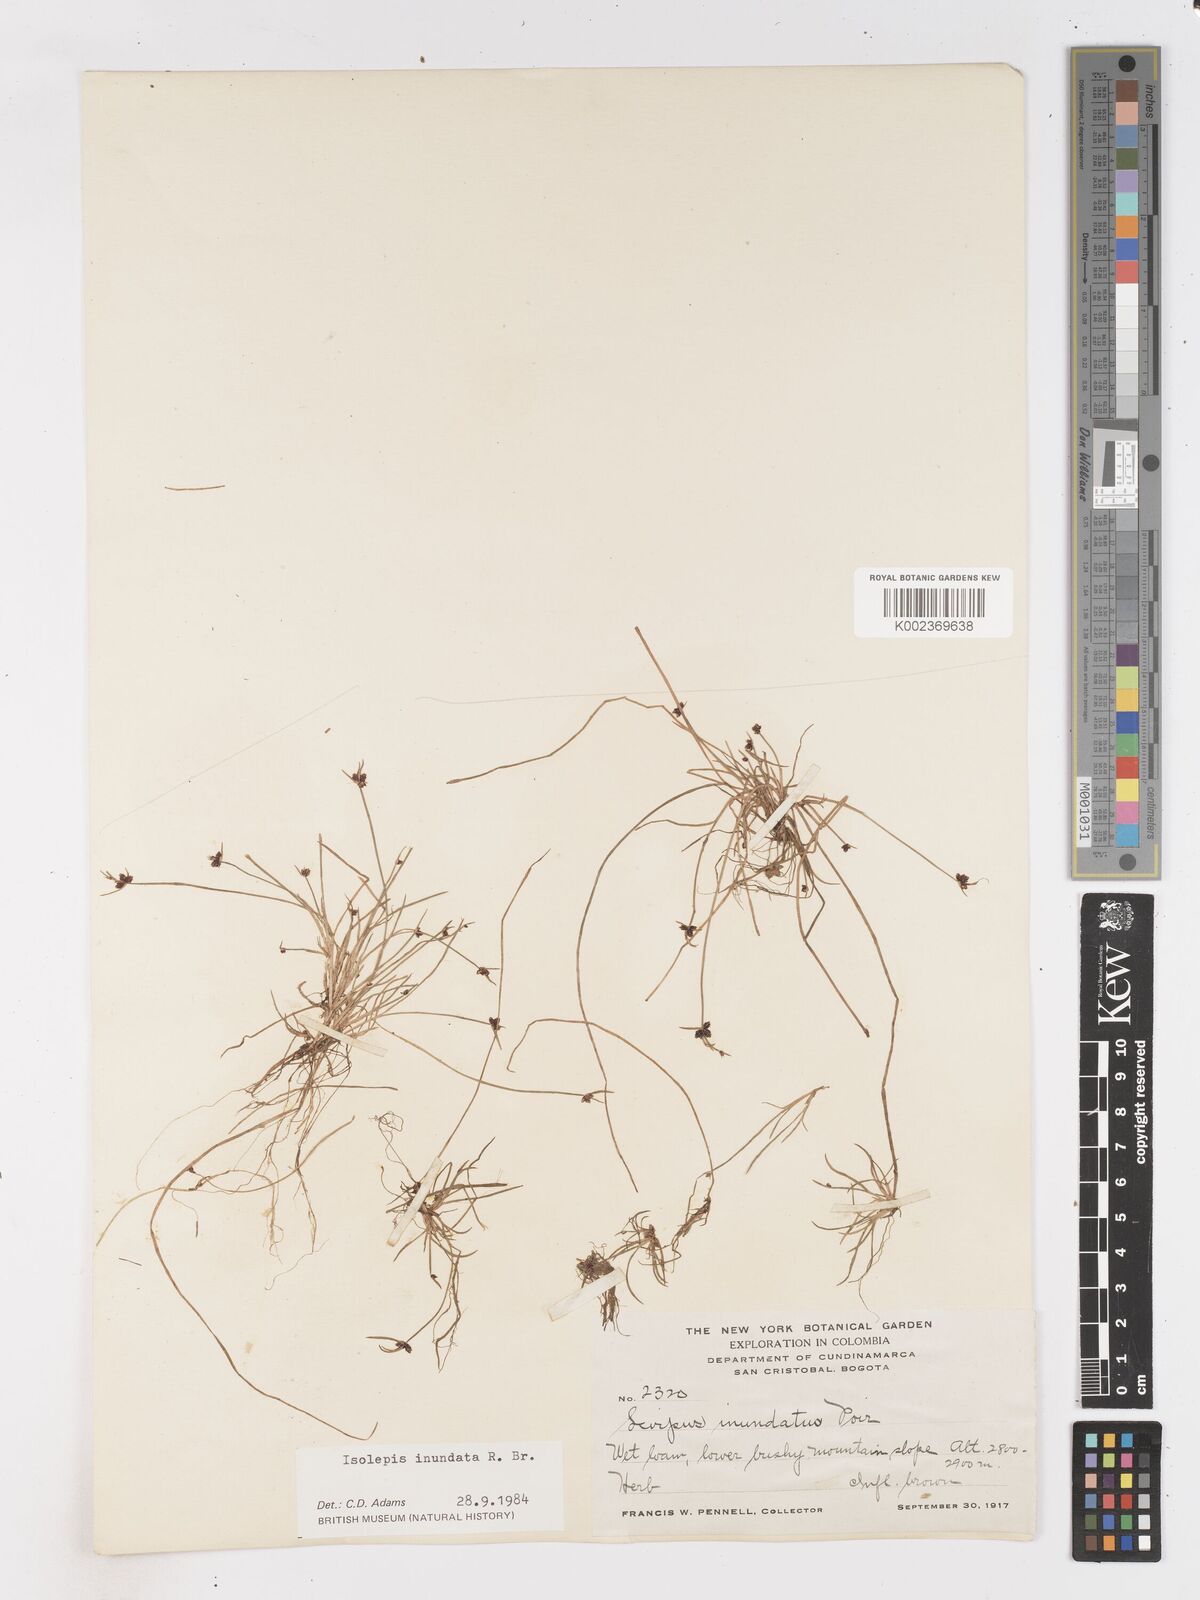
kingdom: Plantae
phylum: Tracheophyta
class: Liliopsida
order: Poales
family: Cyperaceae
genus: Isolepis
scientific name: Isolepis inundata
